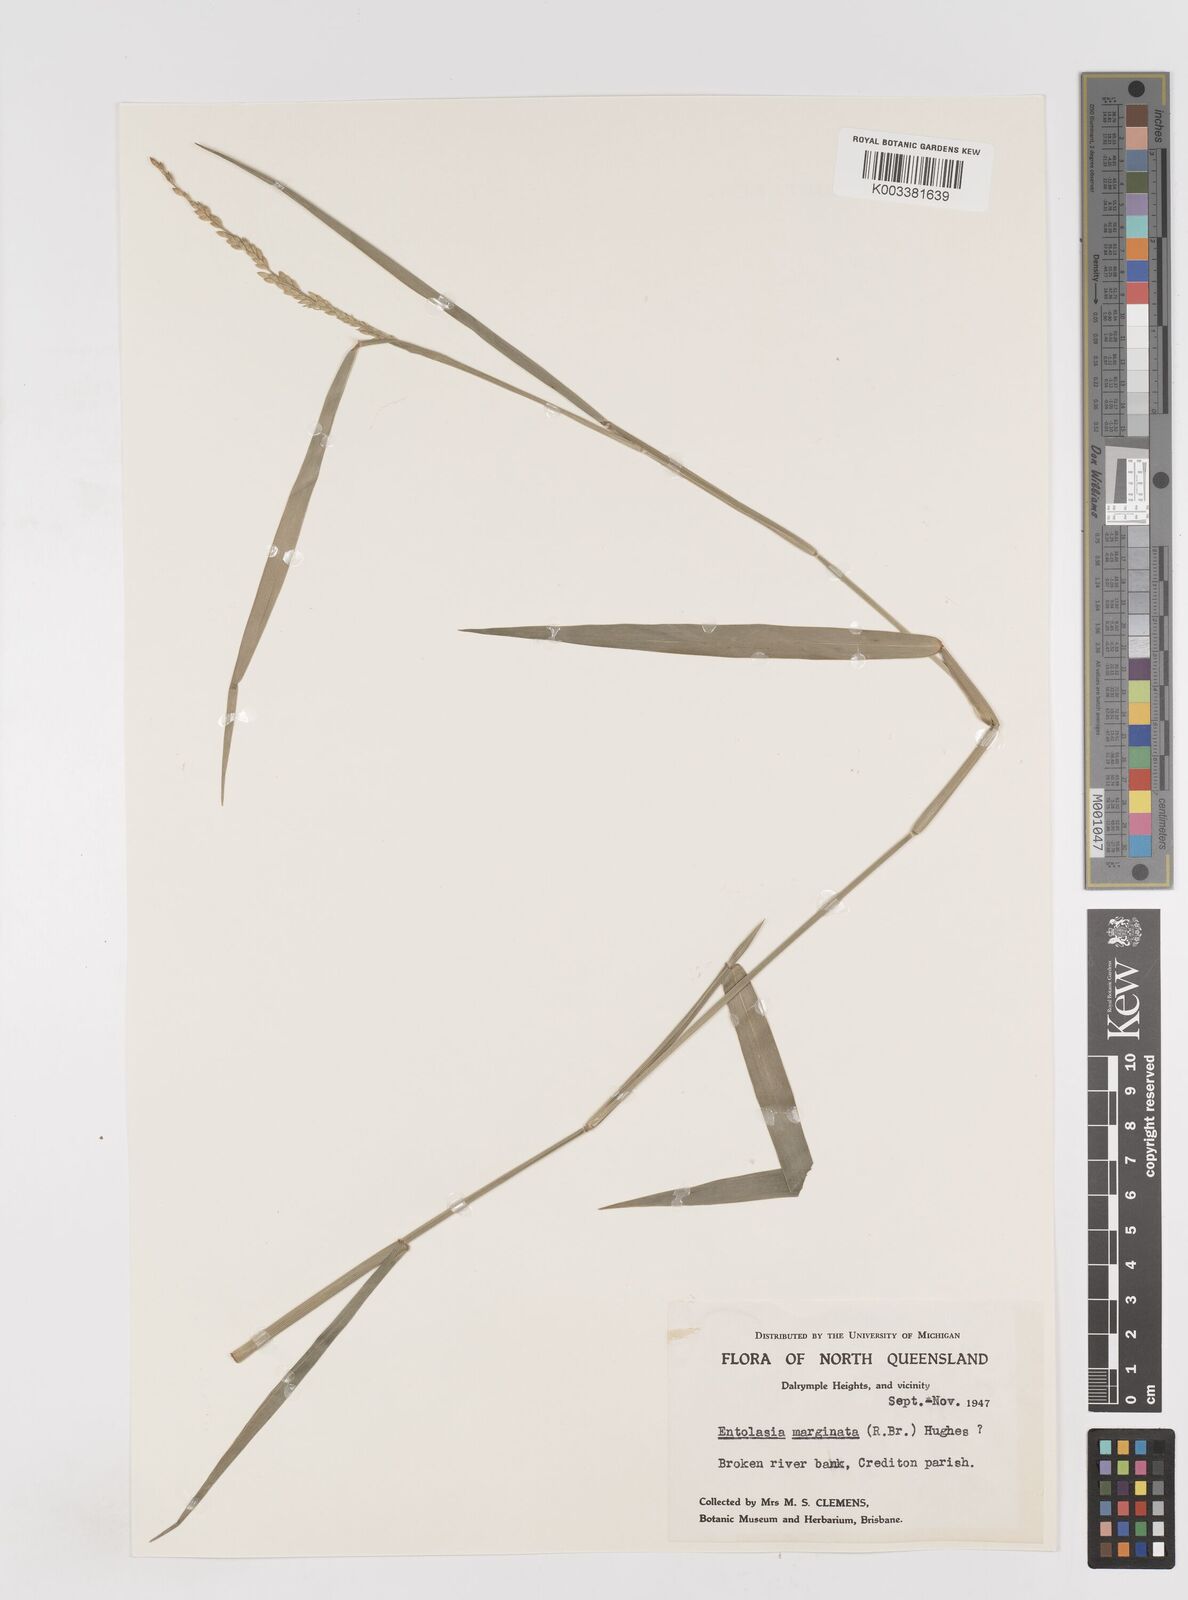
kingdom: Plantae
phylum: Tracheophyta
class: Liliopsida
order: Poales
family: Poaceae
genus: Entolasia
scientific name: Entolasia marginata
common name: Australian panicgrass
